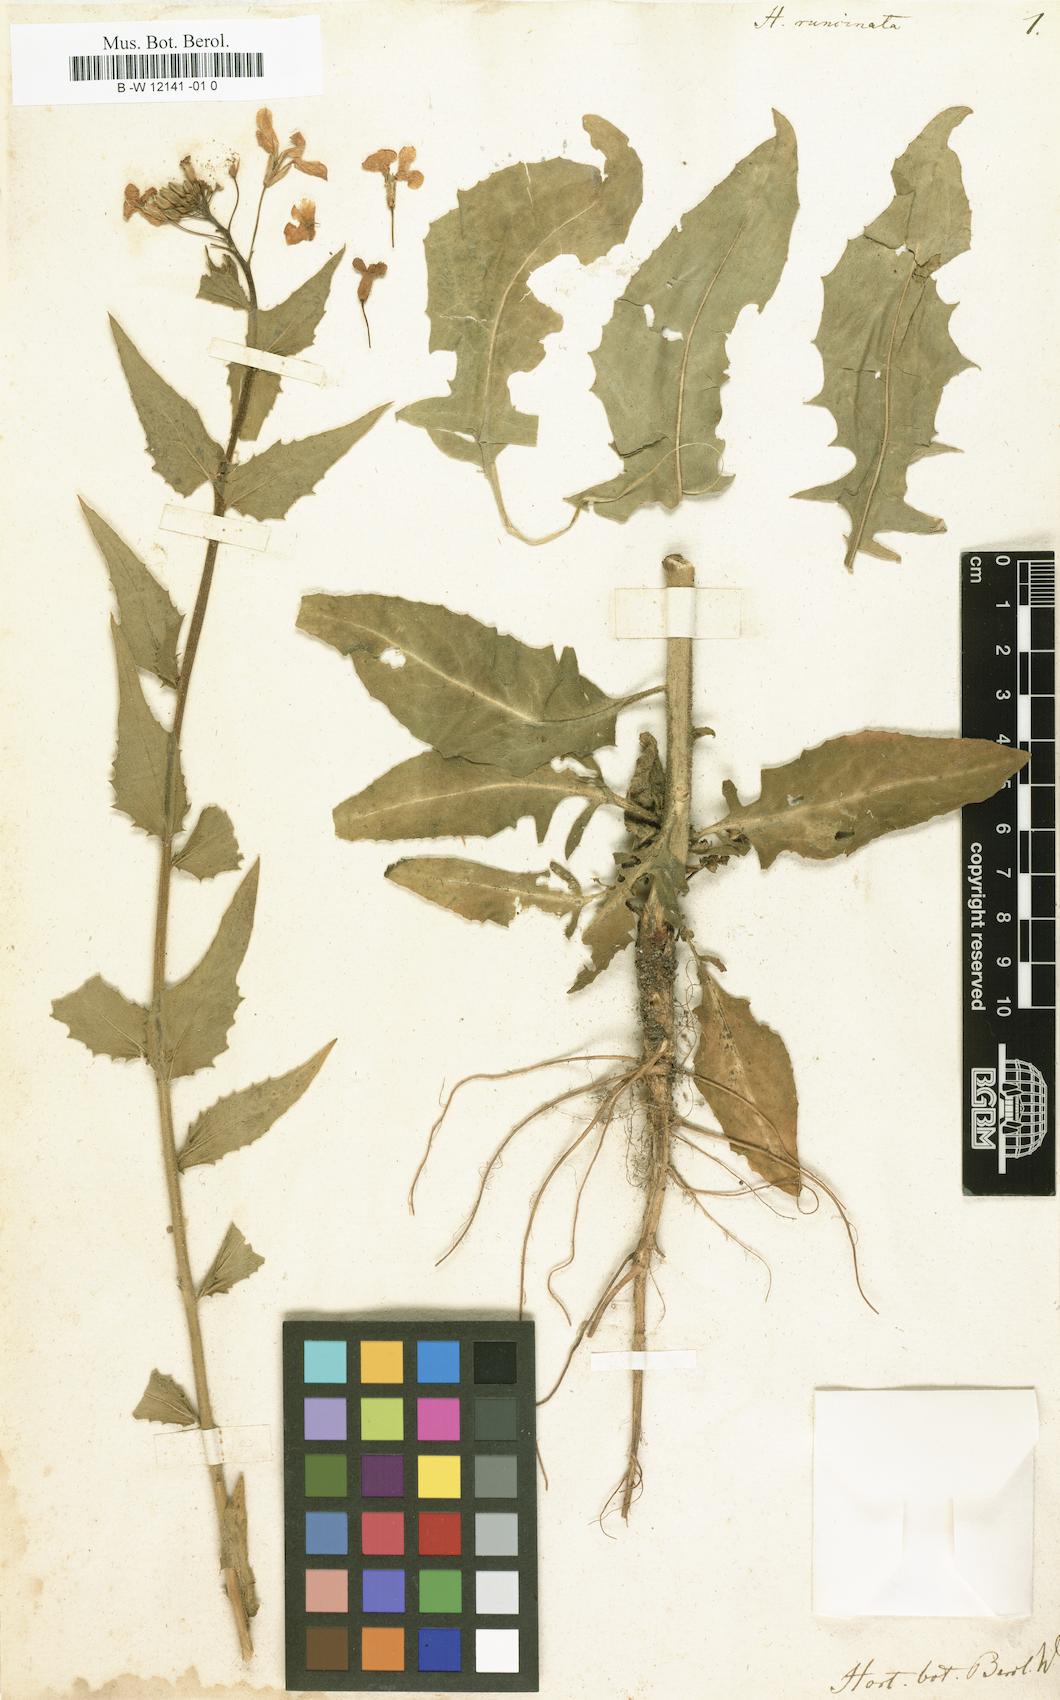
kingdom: Plantae
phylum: Tracheophyta
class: Magnoliopsida
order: Brassicales
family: Brassicaceae
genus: Hesperis
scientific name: Hesperis sylvestris
